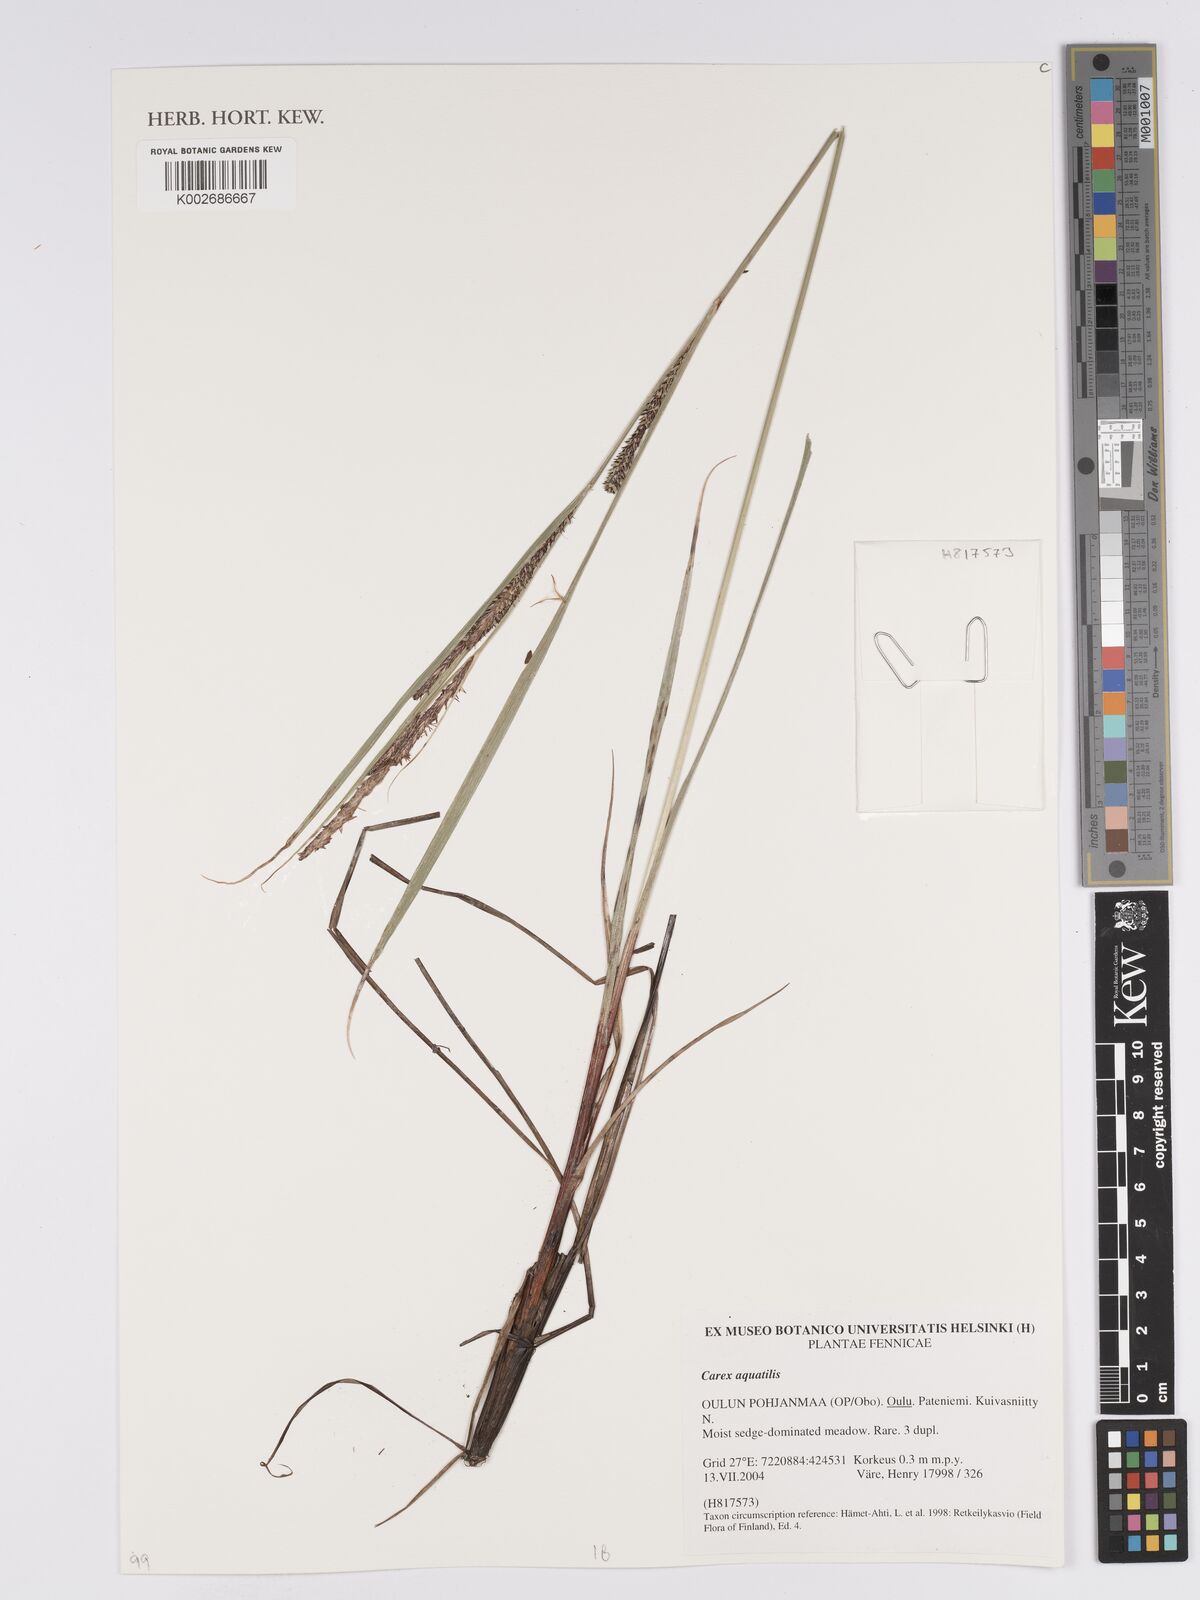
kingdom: Plantae
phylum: Tracheophyta
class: Liliopsida
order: Poales
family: Cyperaceae
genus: Carex
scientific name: Carex aquatilis
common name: Water sedge
